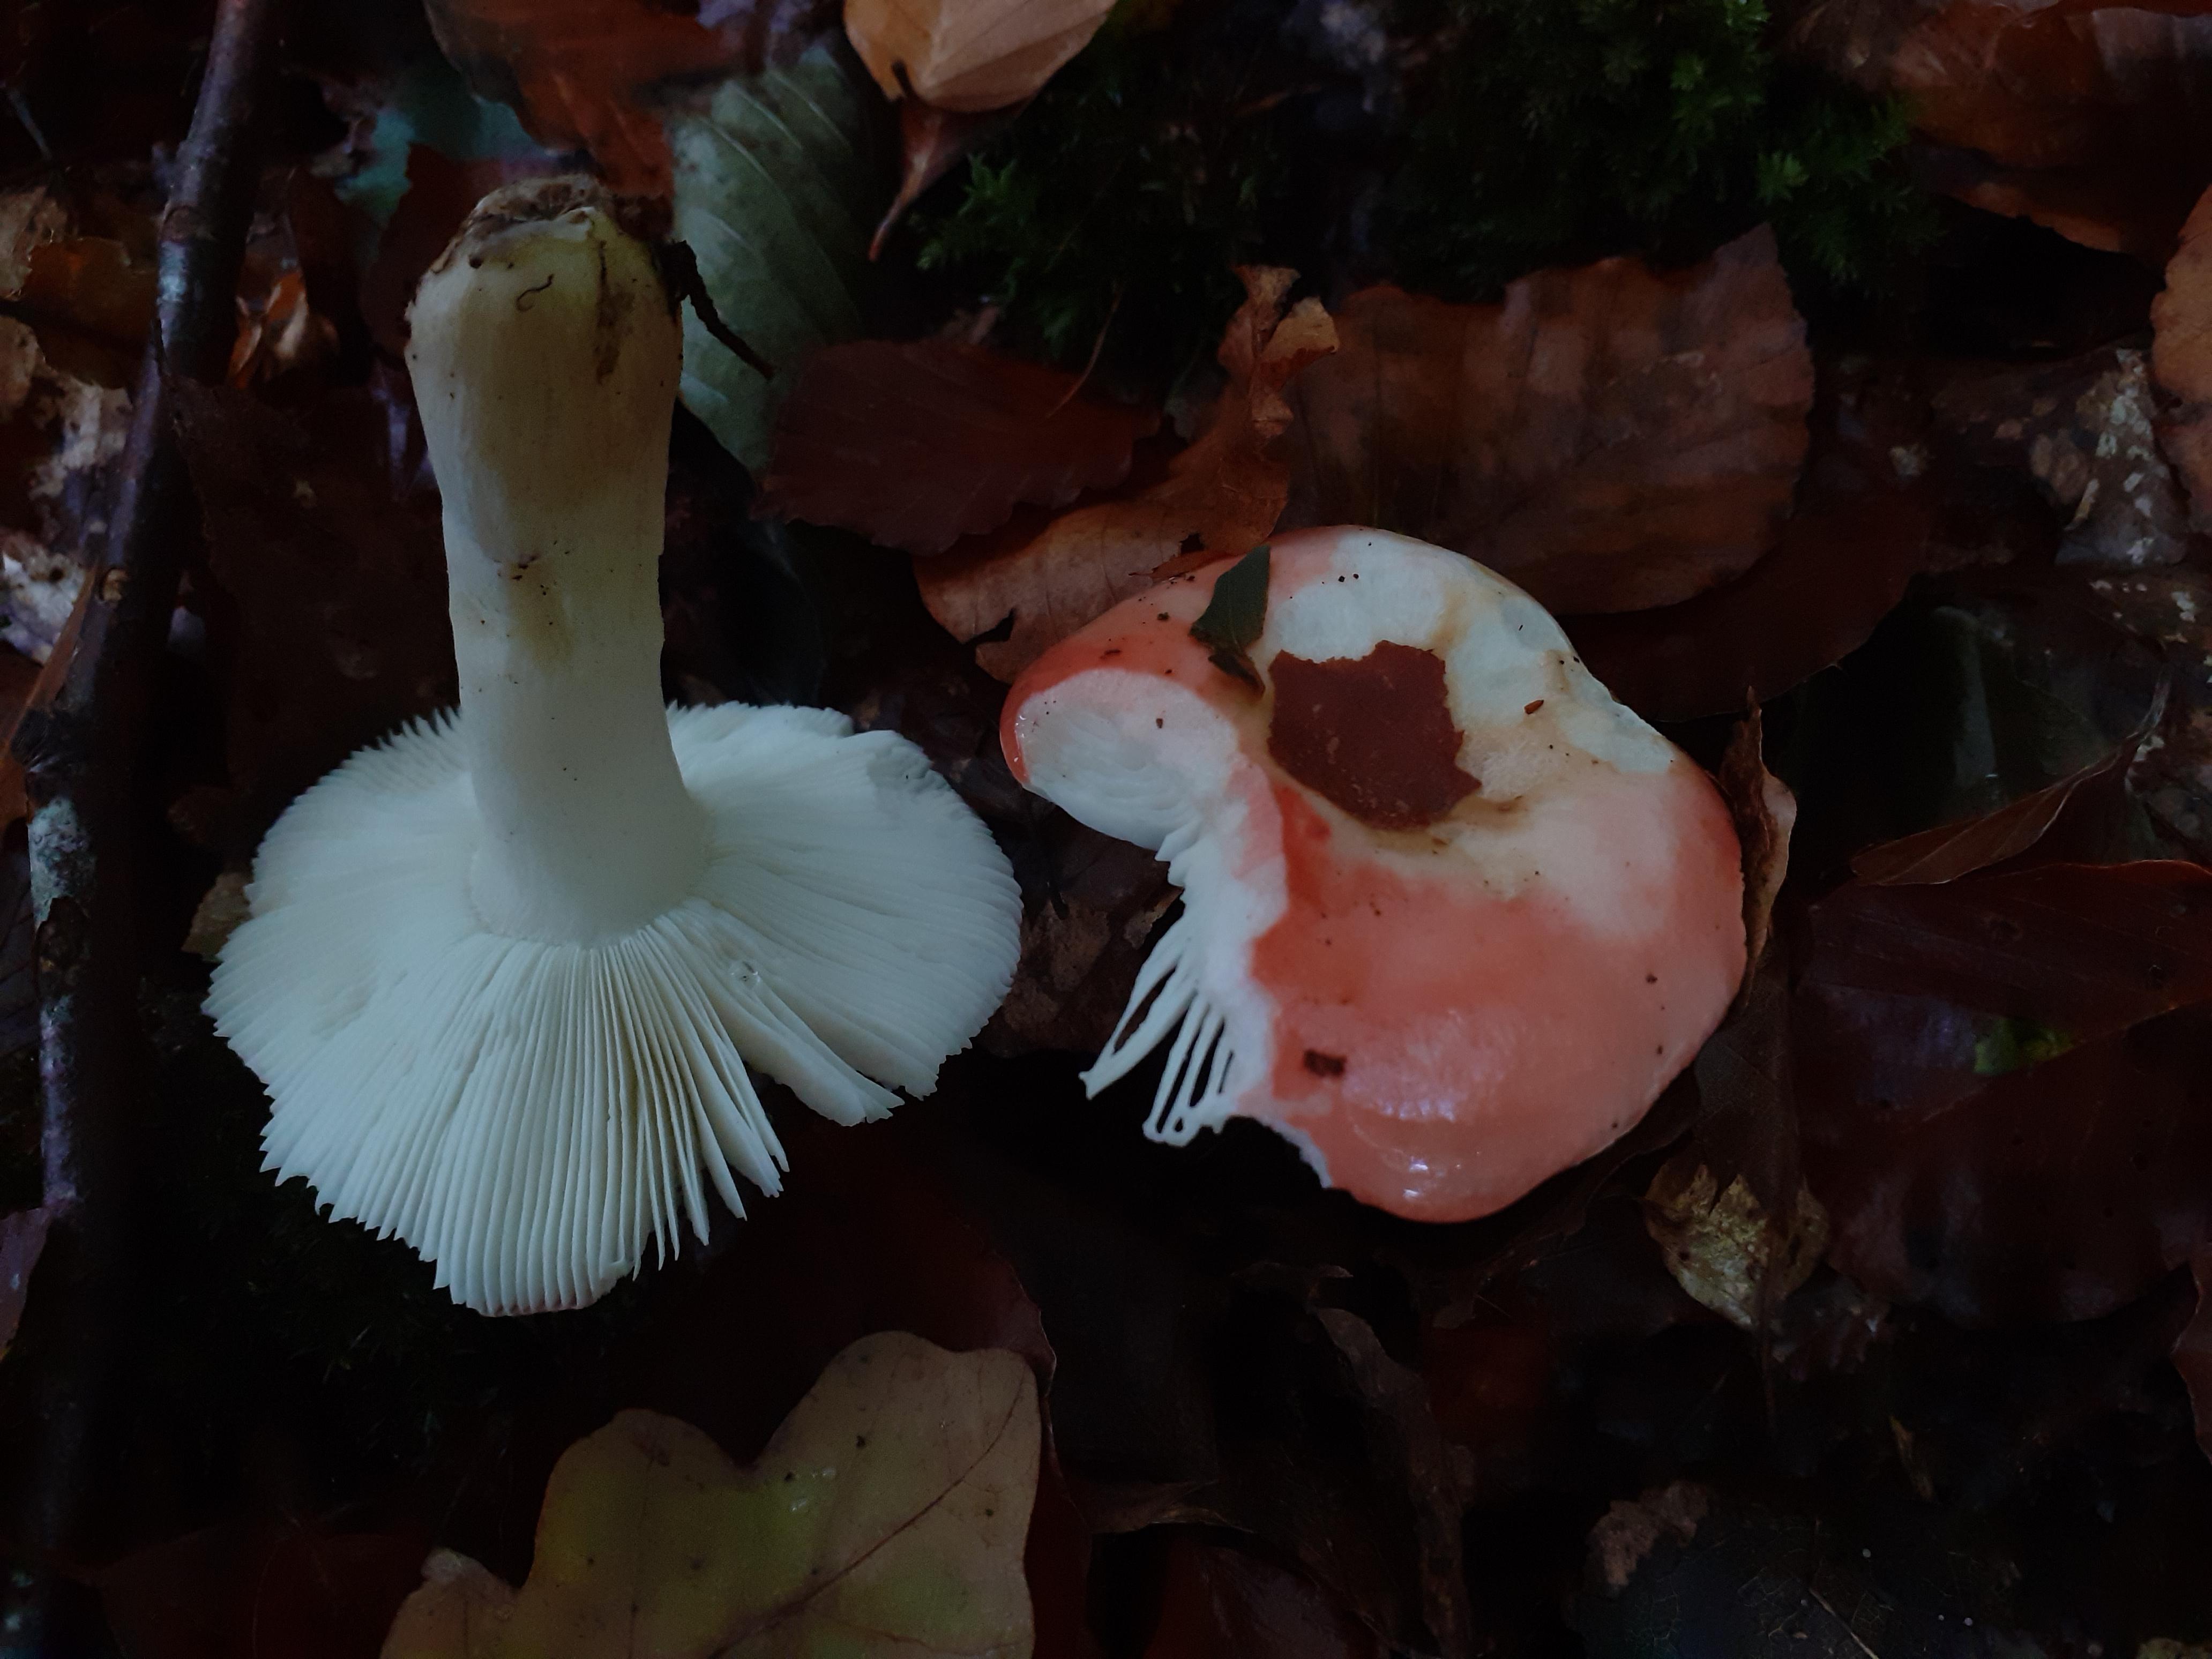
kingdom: Fungi
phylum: Basidiomycota
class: Agaricomycetes
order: Russulales
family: Russulaceae
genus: Russula
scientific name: Russula nobilis
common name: lille gift-skørhat
